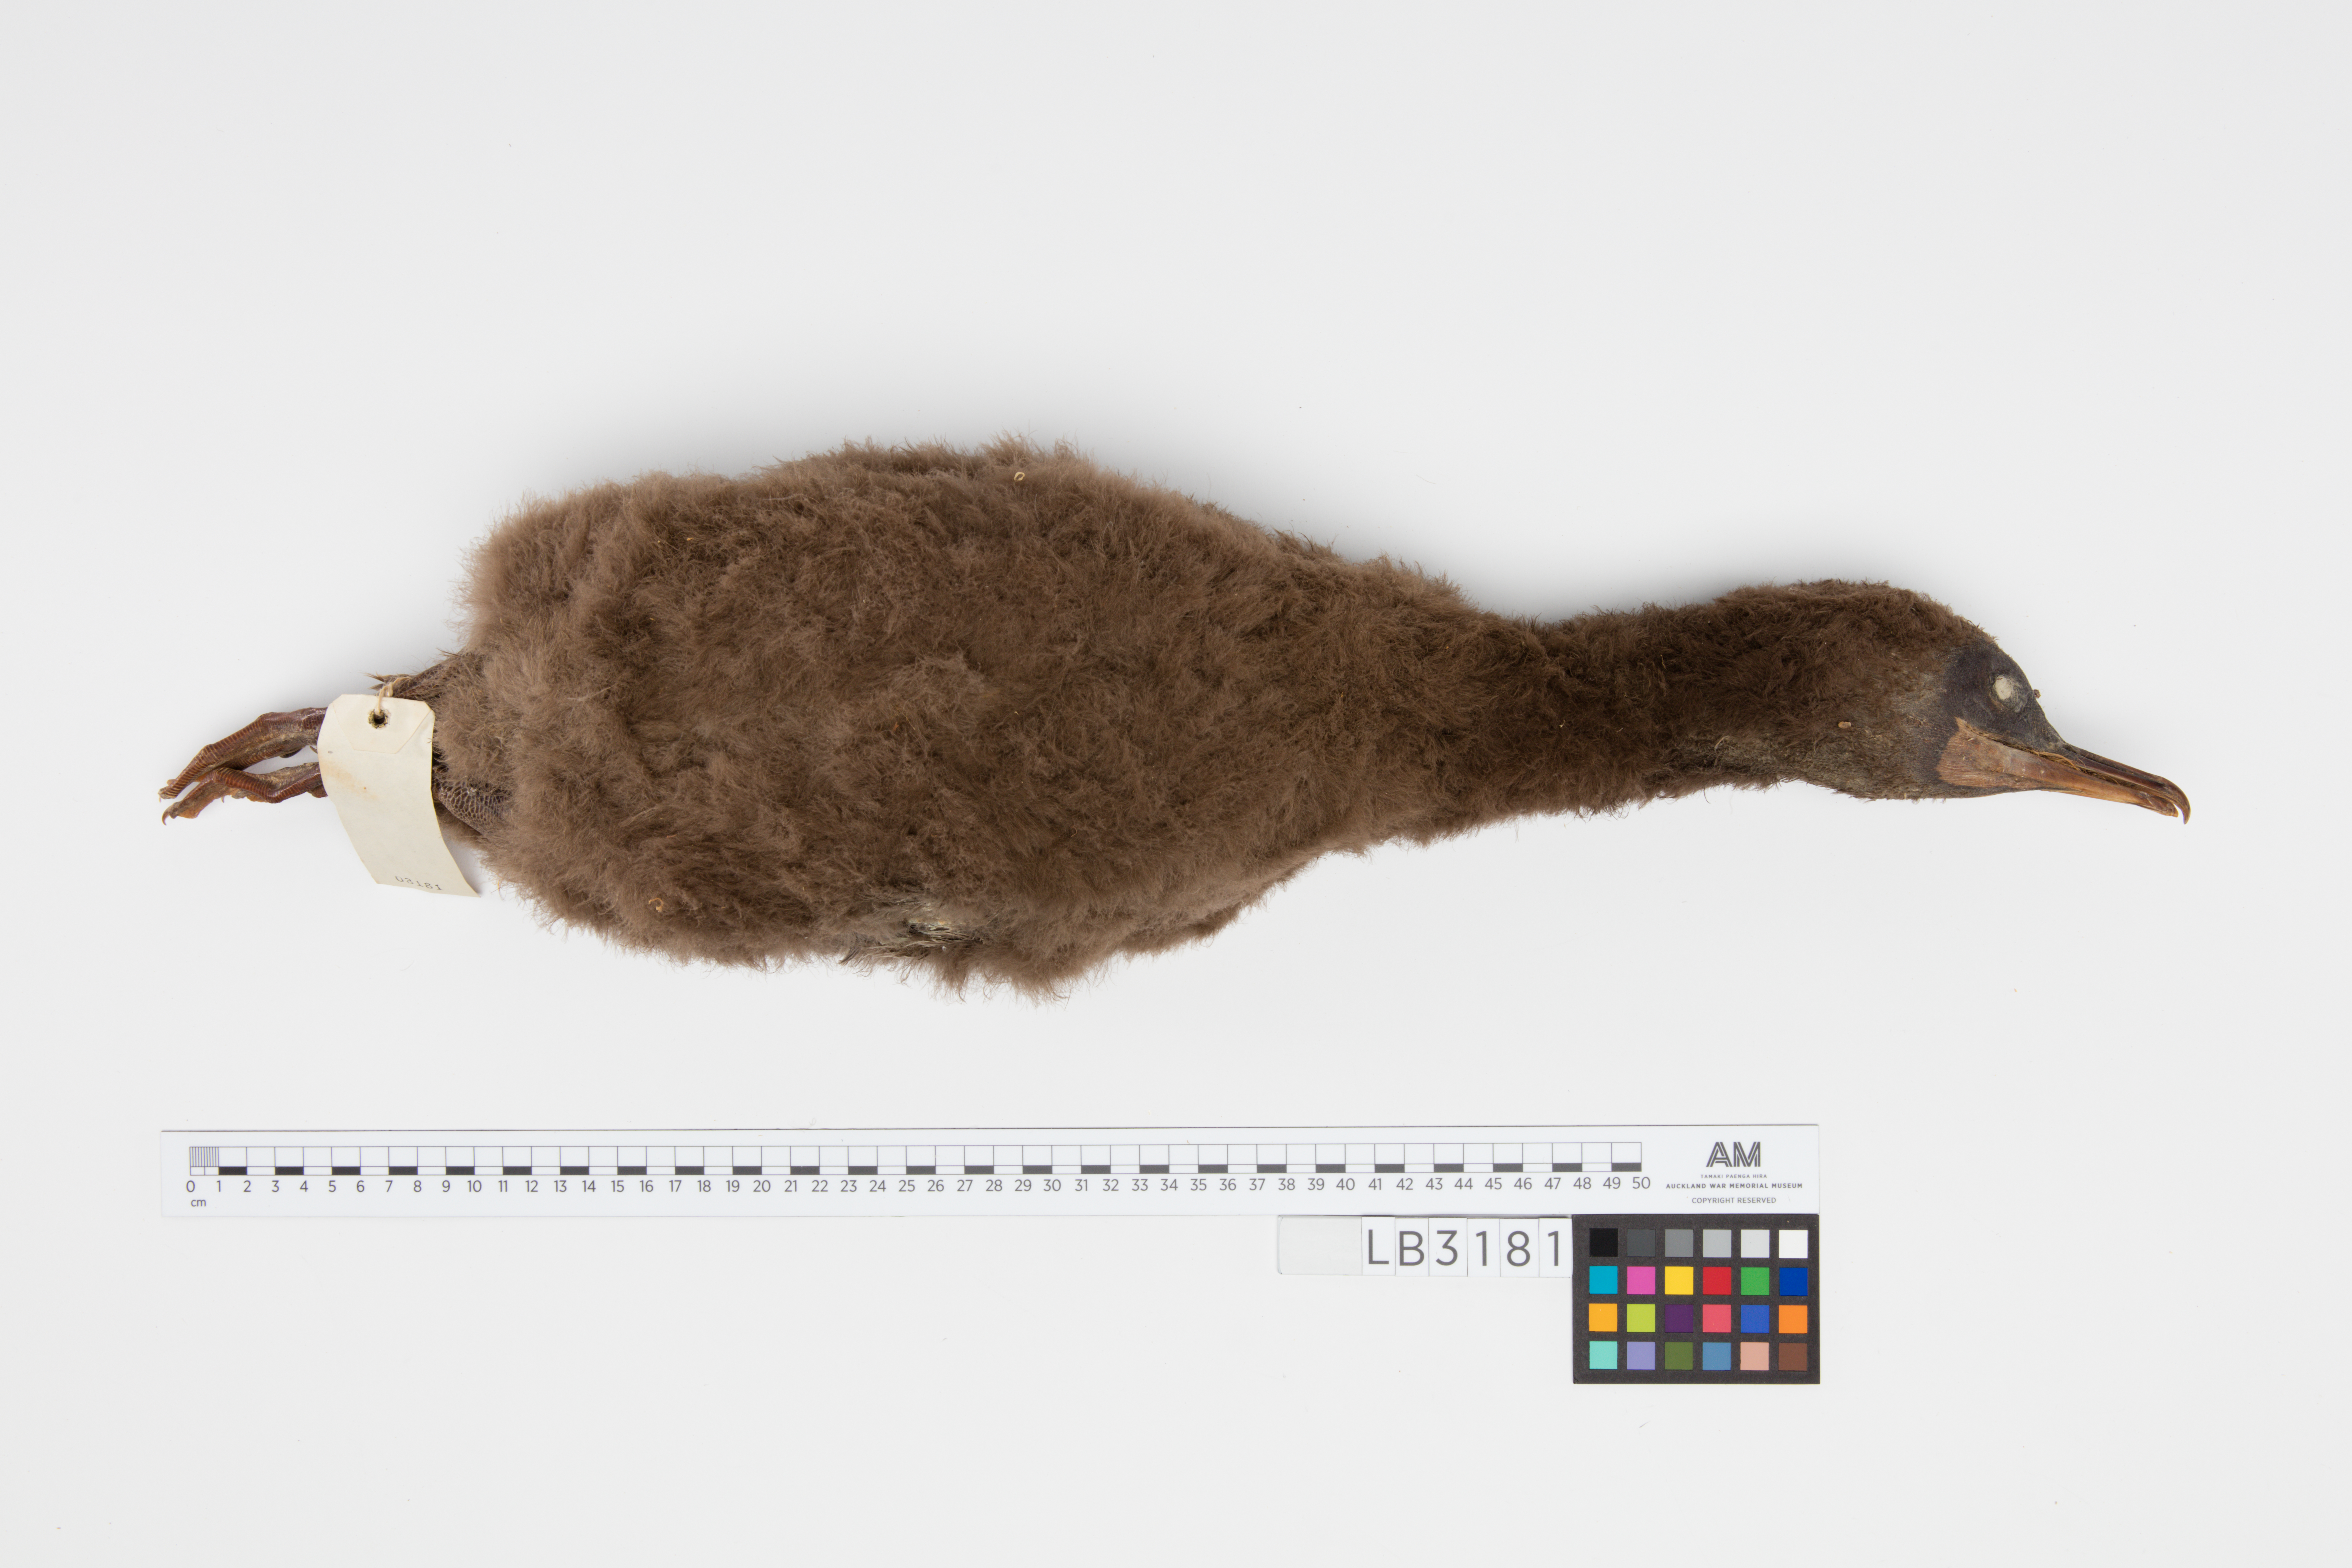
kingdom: Animalia
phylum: Chordata
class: Aves
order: Suliformes
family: Phalacrocoracidae
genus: Leucocarbo
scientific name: Leucocarbo carunculatus
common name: Rough-faced shag
